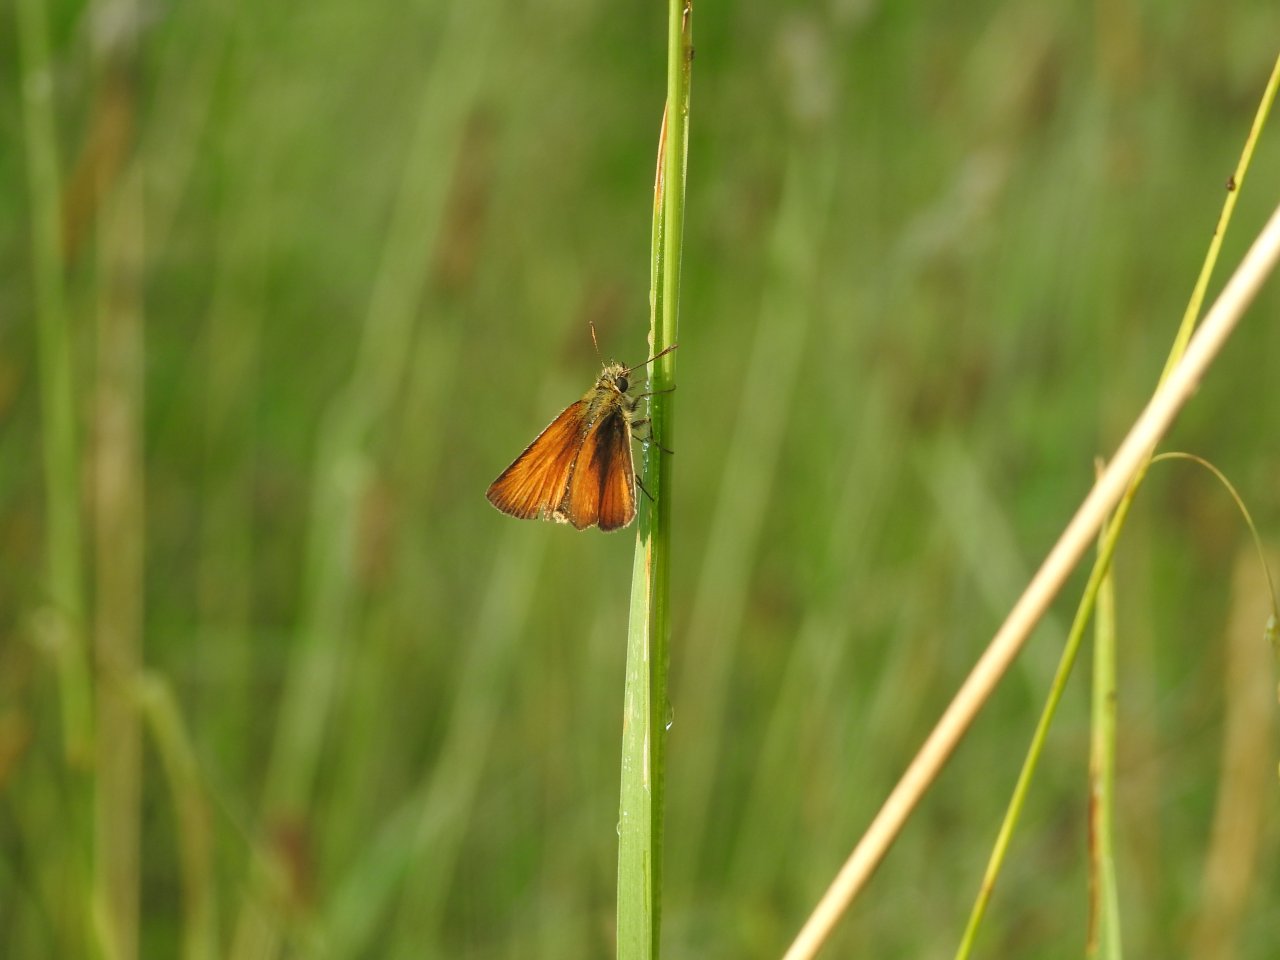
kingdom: Animalia
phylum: Arthropoda
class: Insecta
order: Lepidoptera
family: Hesperiidae
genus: Thymelicus
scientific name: Thymelicus lineola
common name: European Skipper
